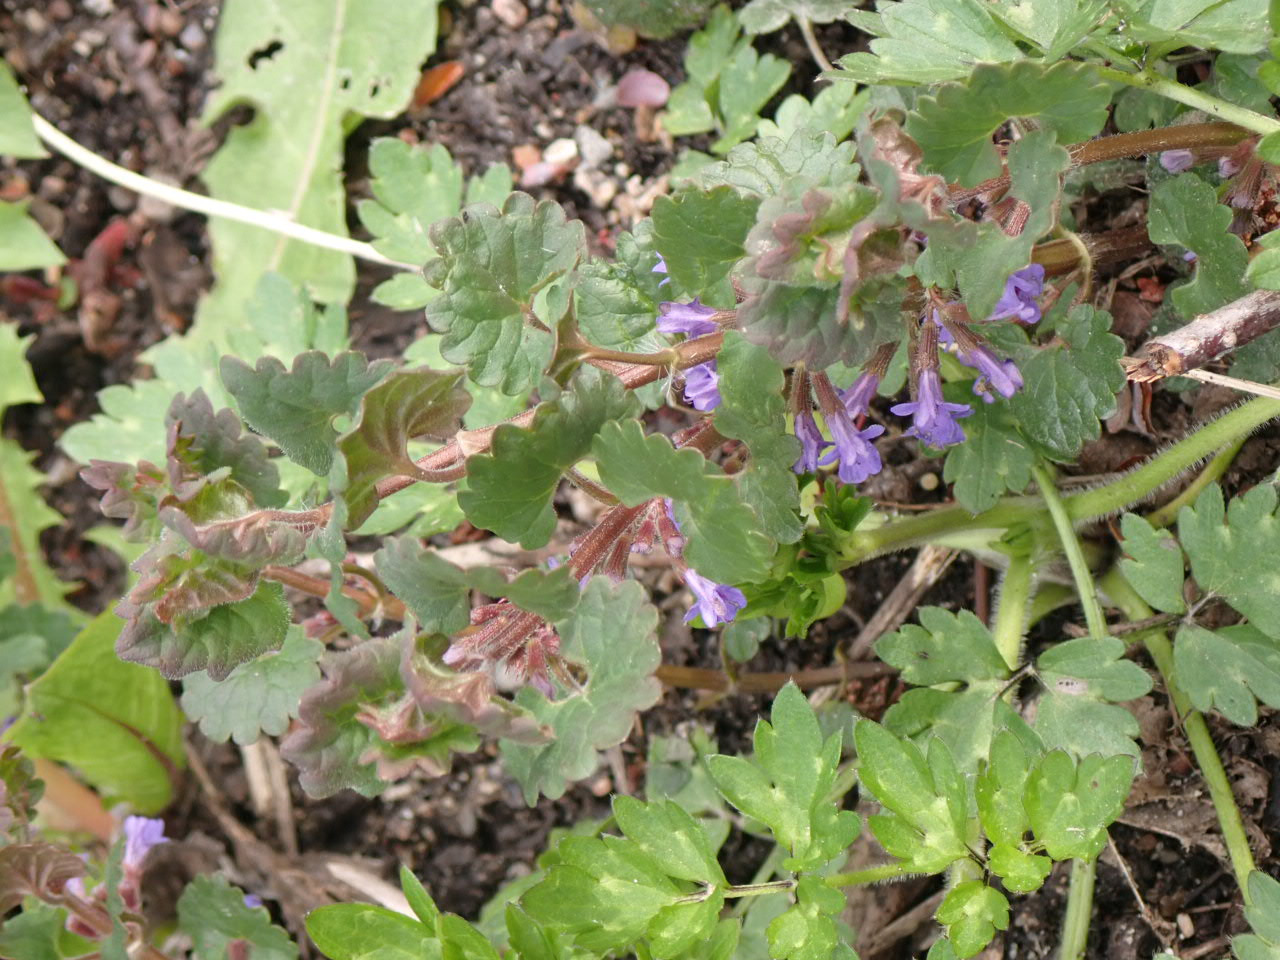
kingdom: Plantae
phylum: Tracheophyta
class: Magnoliopsida
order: Lamiales
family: Lamiaceae
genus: Glechoma
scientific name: Glechoma hederacea
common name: Korsknap
